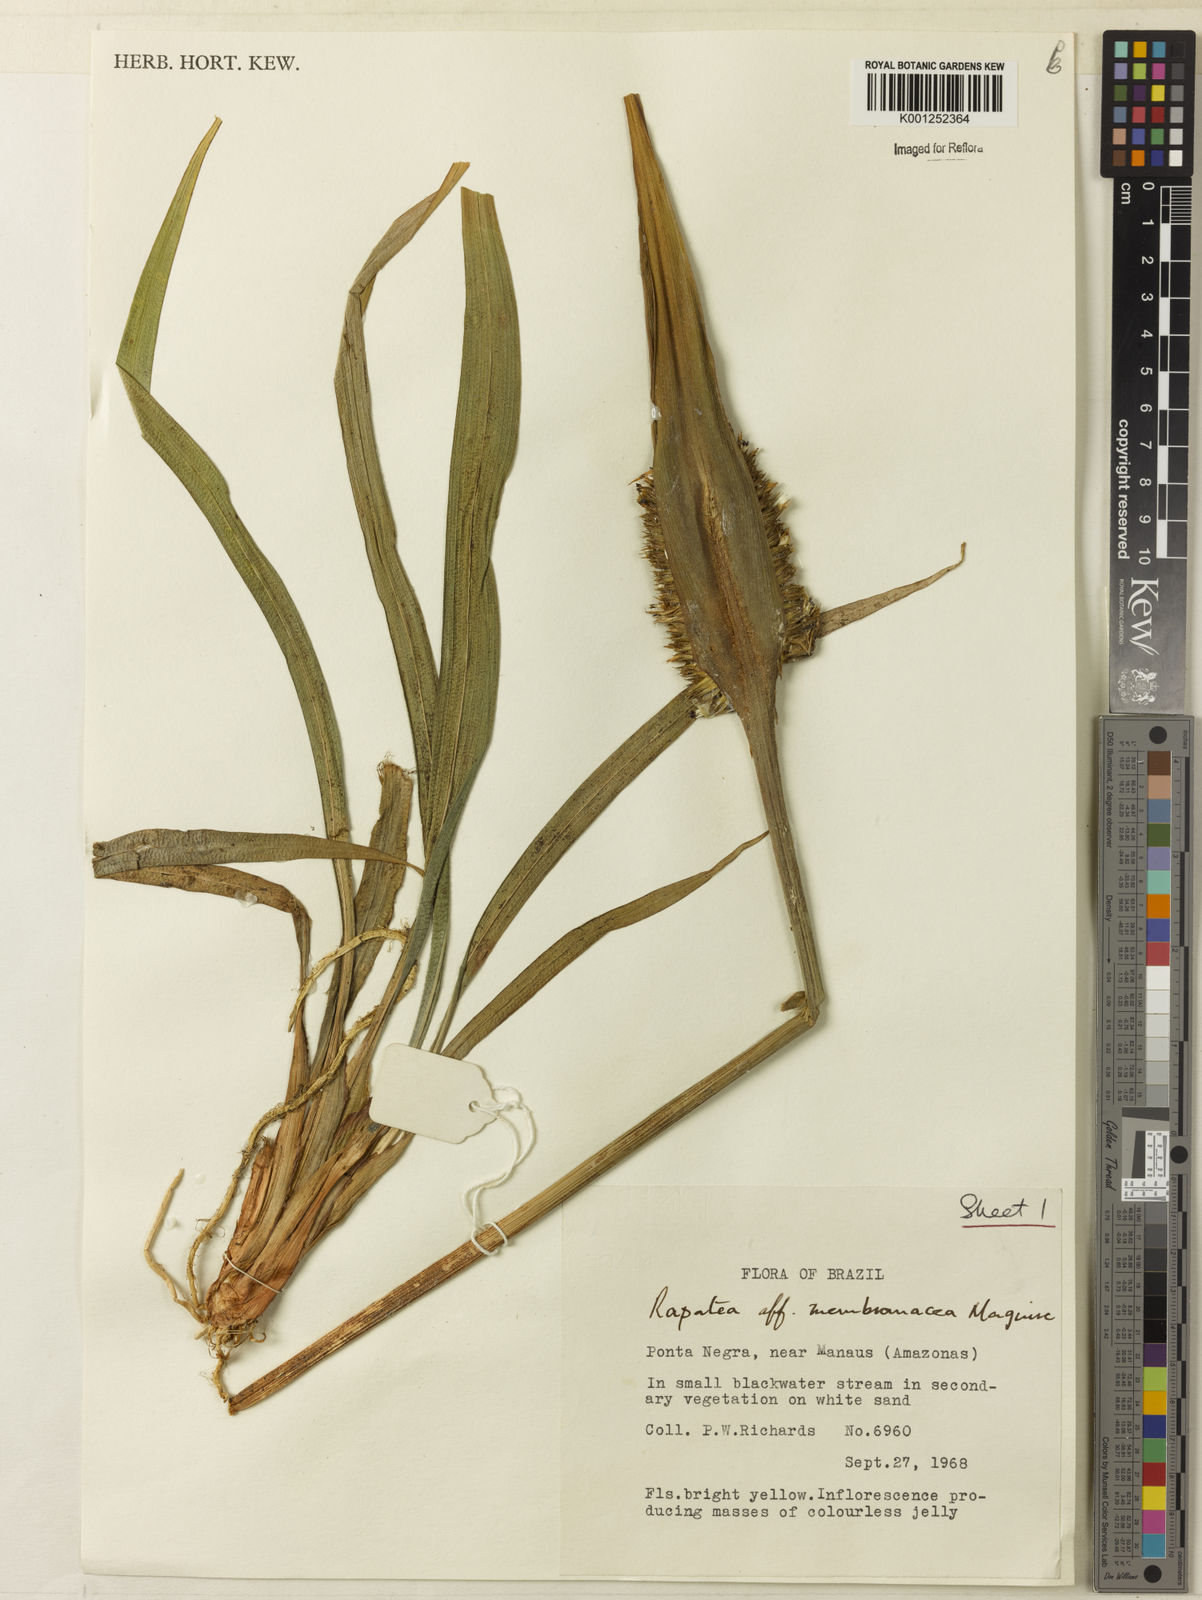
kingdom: Plantae
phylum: Tracheophyta
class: Liliopsida
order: Poales
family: Rapateaceae
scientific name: Rapateaceae
